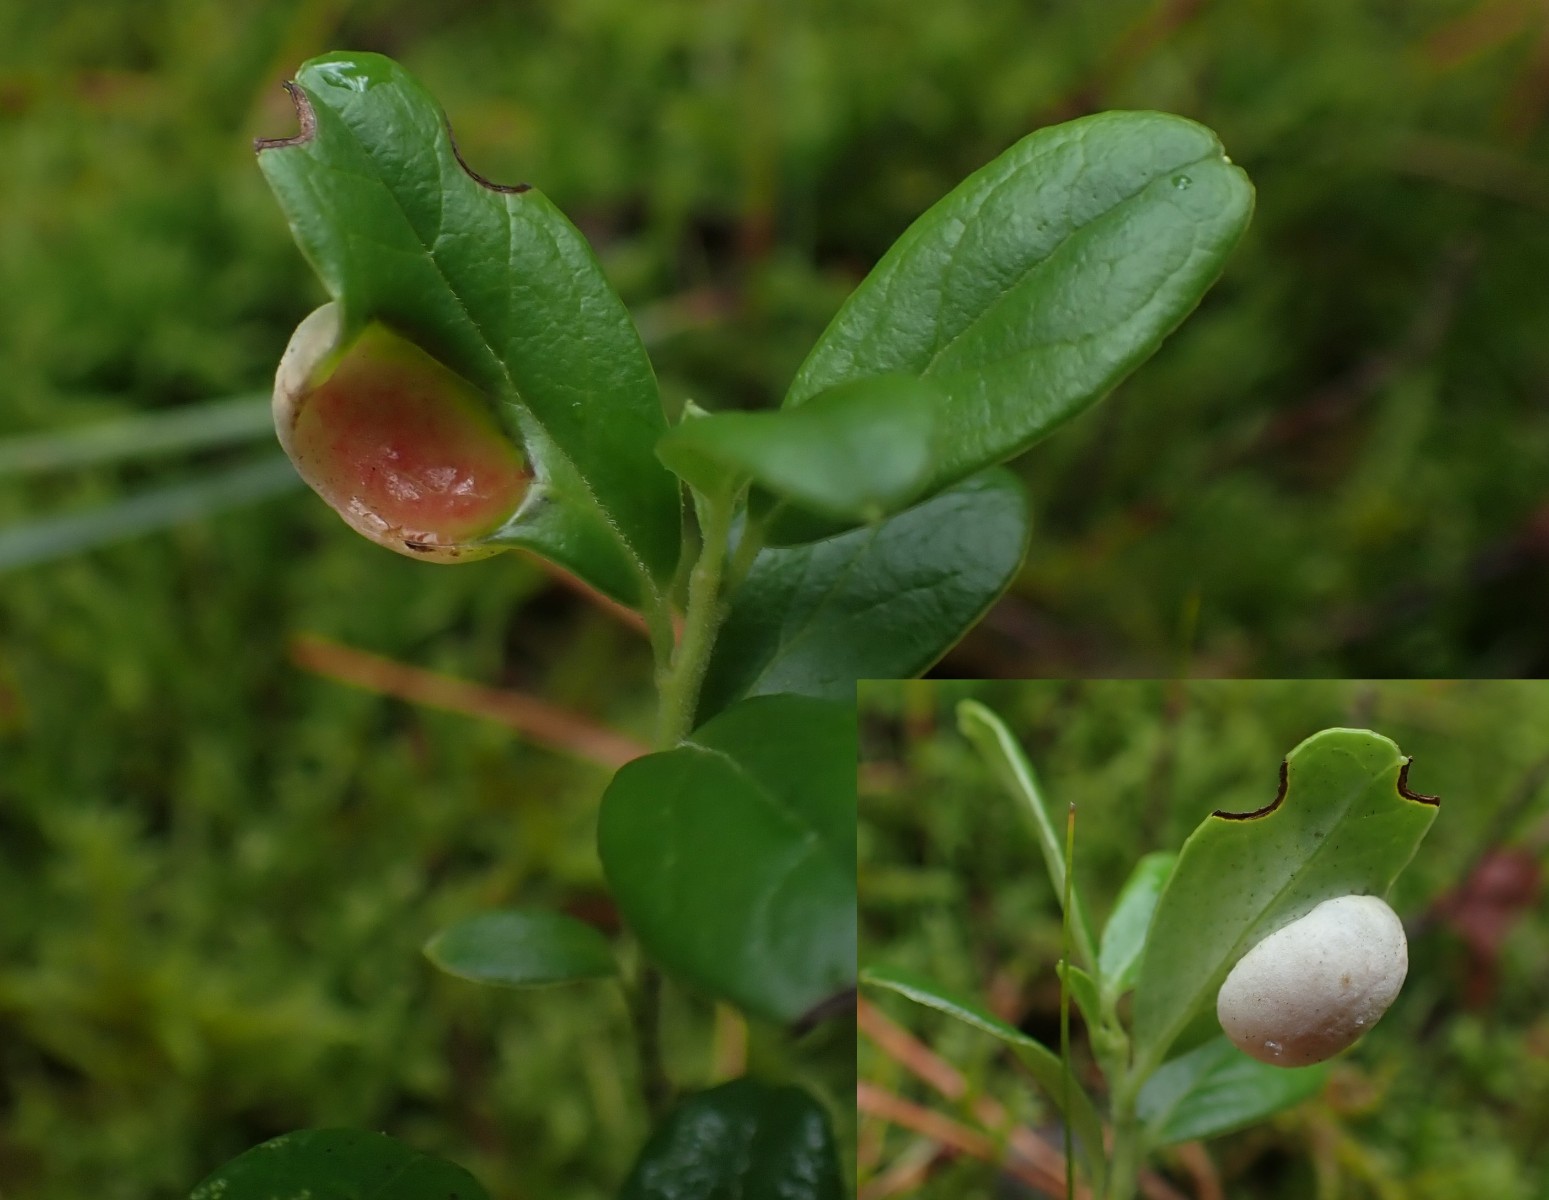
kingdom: Fungi
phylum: Basidiomycota
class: Exobasidiomycetes
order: Exobasidiales
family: Exobasidiaceae
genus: Exobasidium
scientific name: Exobasidium vaccinii
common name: tyttebærblad-bøllesvamp
